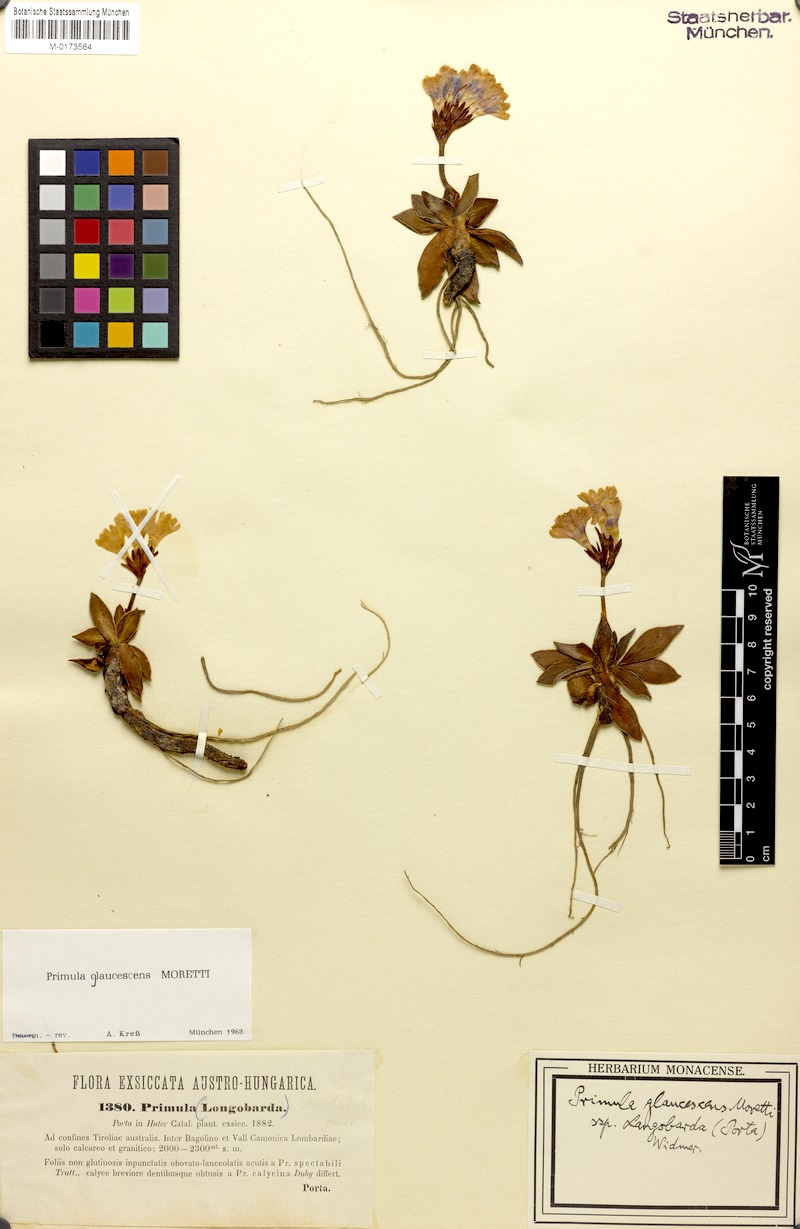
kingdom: Plantae
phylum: Tracheophyta
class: Magnoliopsida
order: Ericales
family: Primulaceae
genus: Primula
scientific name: Primula glaucescens
